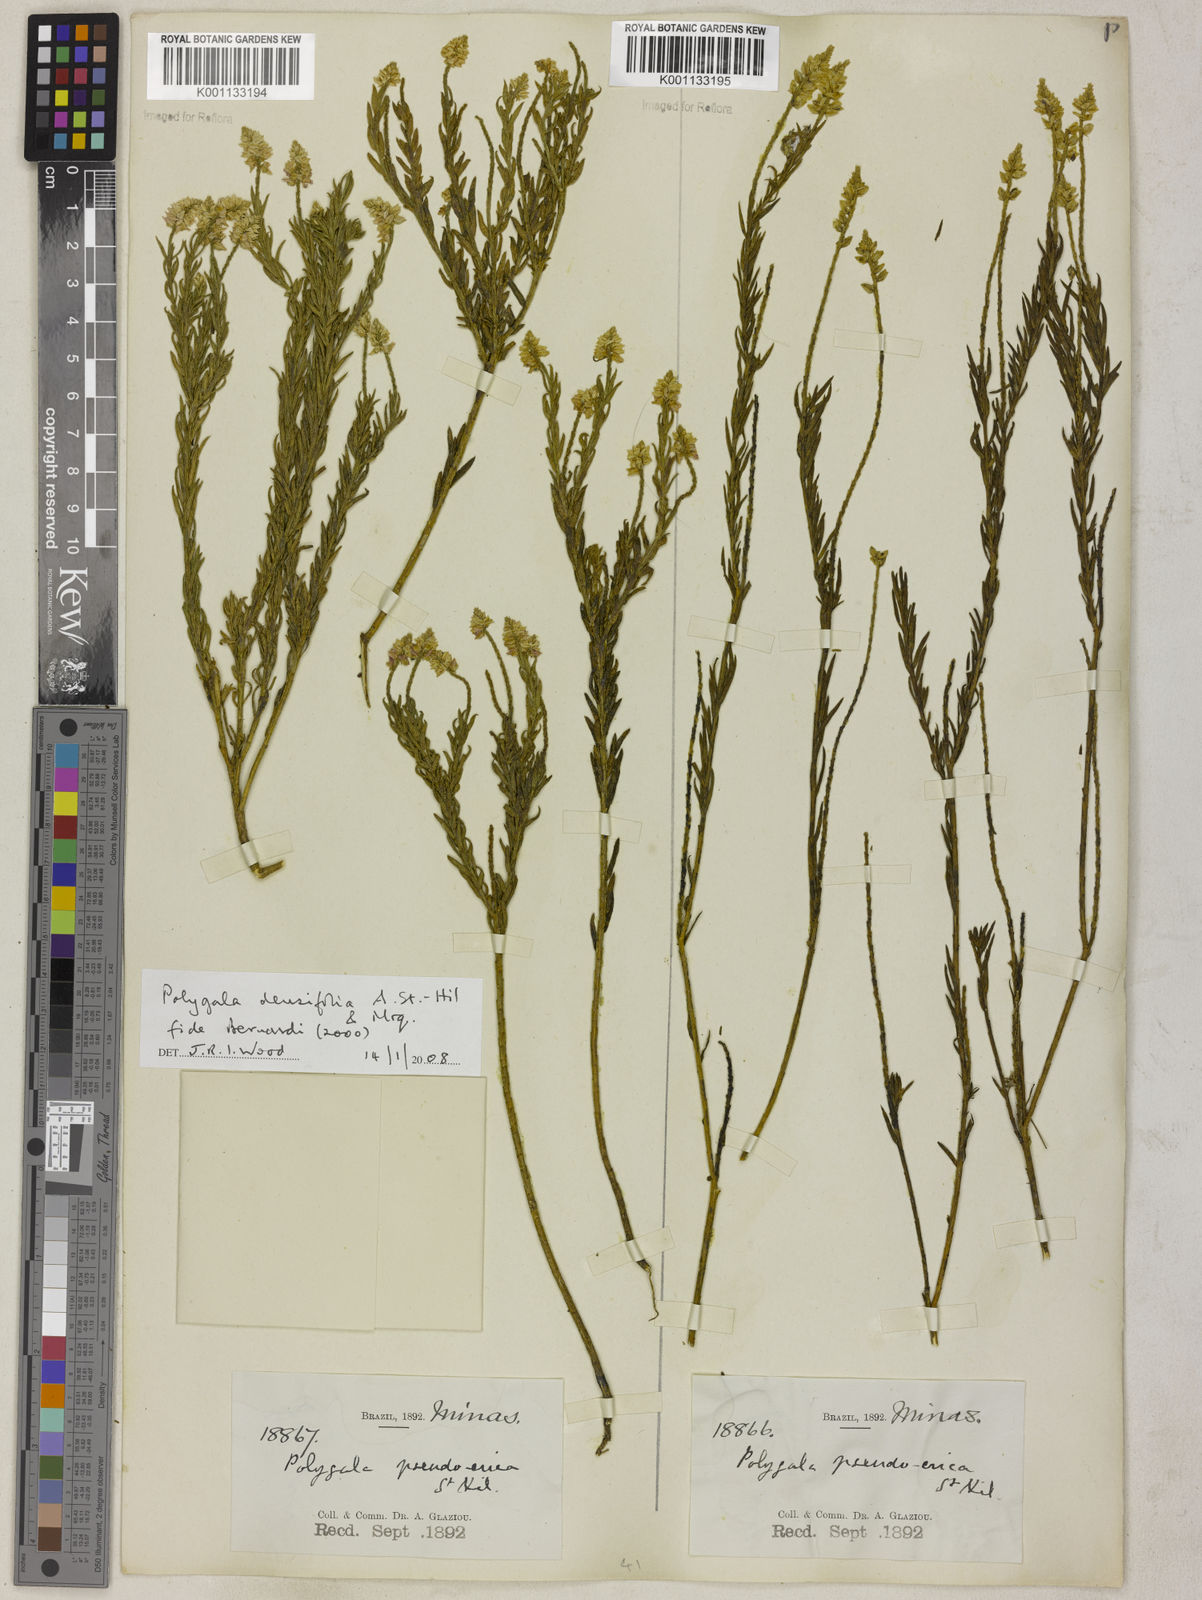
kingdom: Plantae
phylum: Tracheophyta
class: Magnoliopsida
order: Fabales
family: Polygalaceae
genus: Polygala
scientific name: Polygala densifolia
